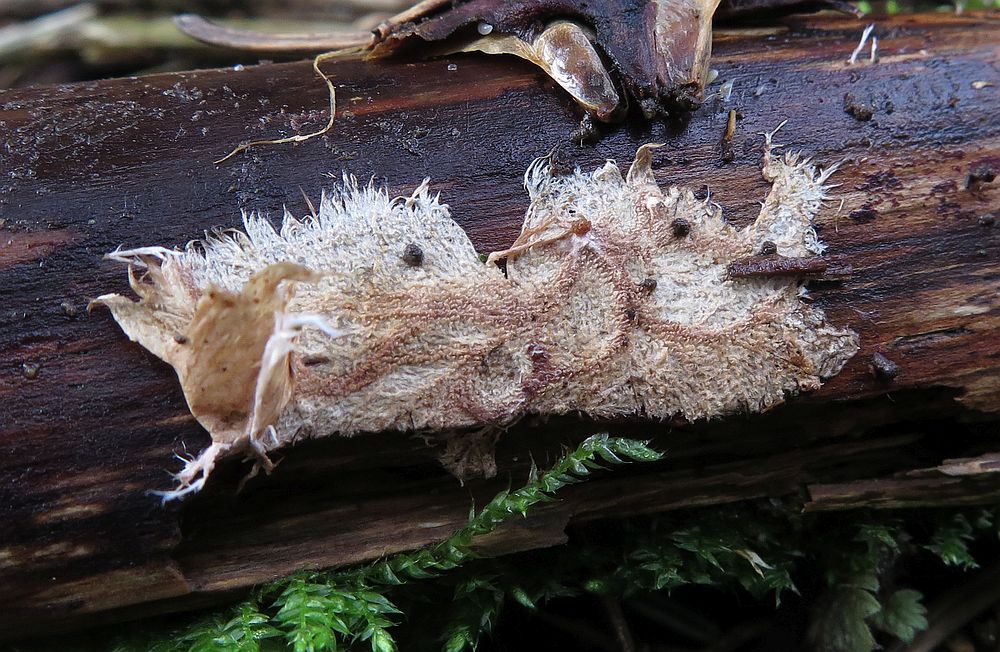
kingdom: Fungi
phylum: Basidiomycota
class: Agaricomycetes
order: Polyporales
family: Steccherinaceae
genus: Steccherinum
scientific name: Steccherinum fimbriatum
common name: trådet skønpig
